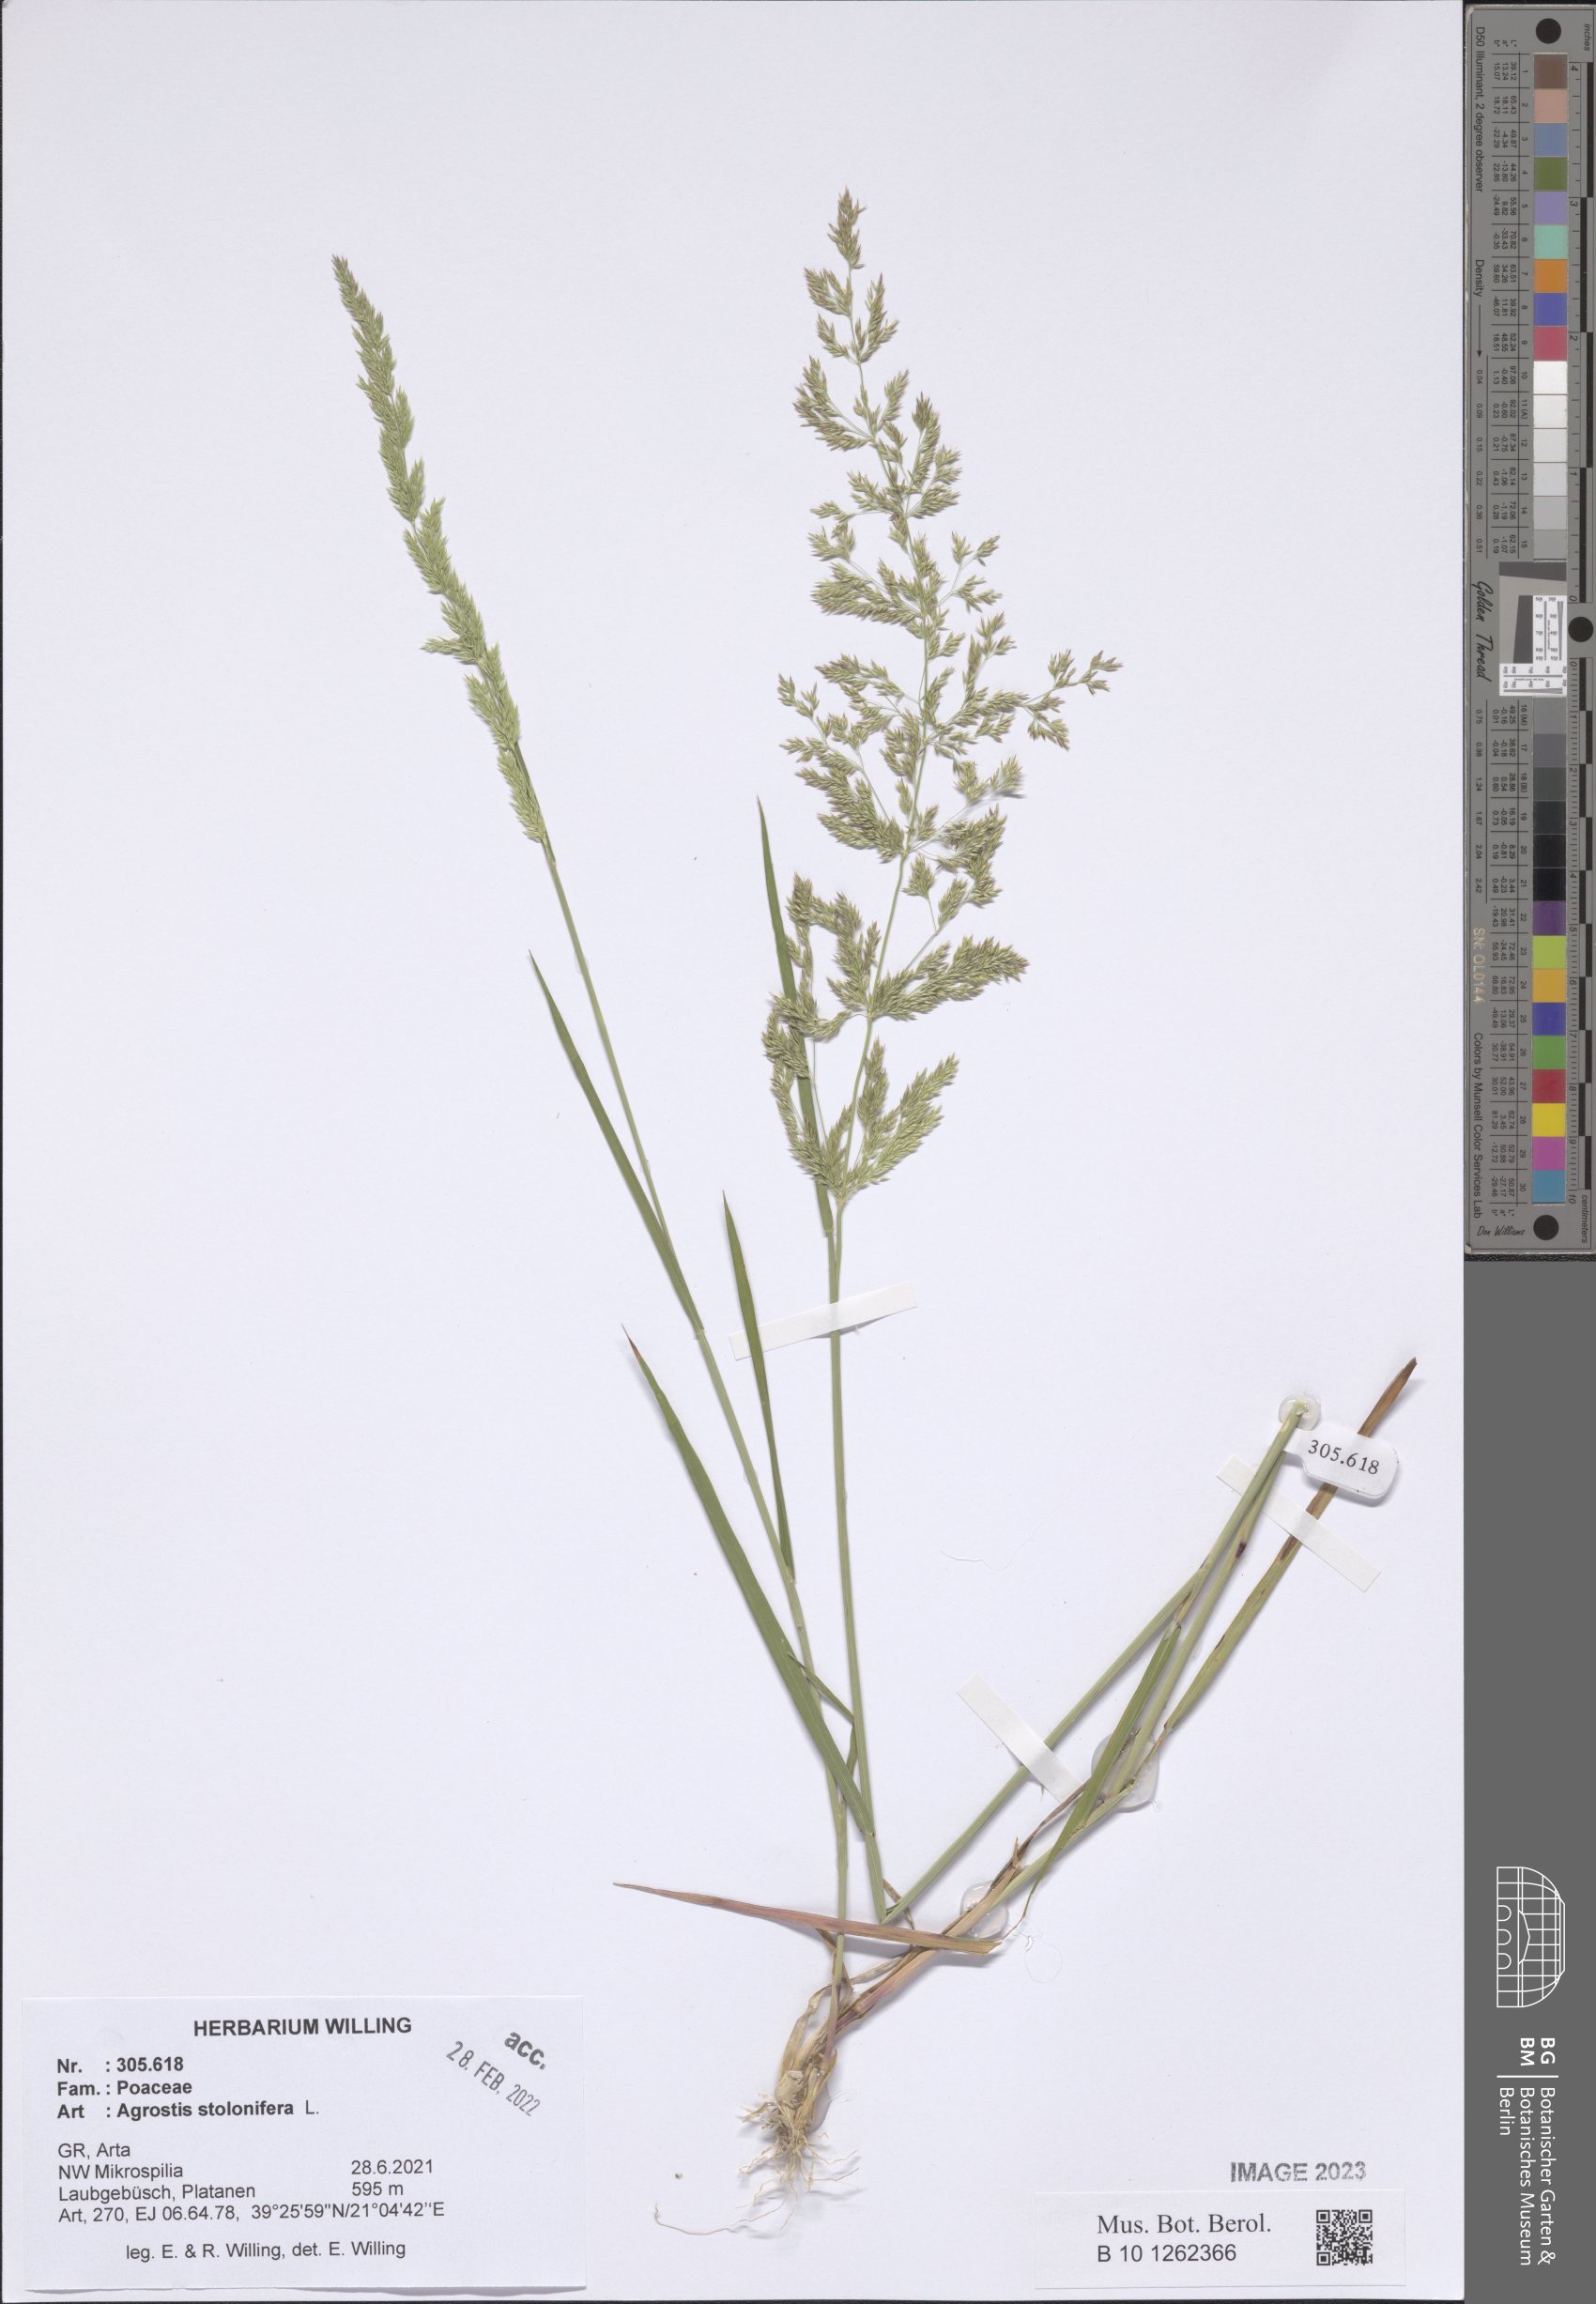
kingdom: Plantae
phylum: Tracheophyta
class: Liliopsida
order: Poales
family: Poaceae
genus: Agrostis
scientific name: Agrostis stolonifera
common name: Creeping bentgrass
